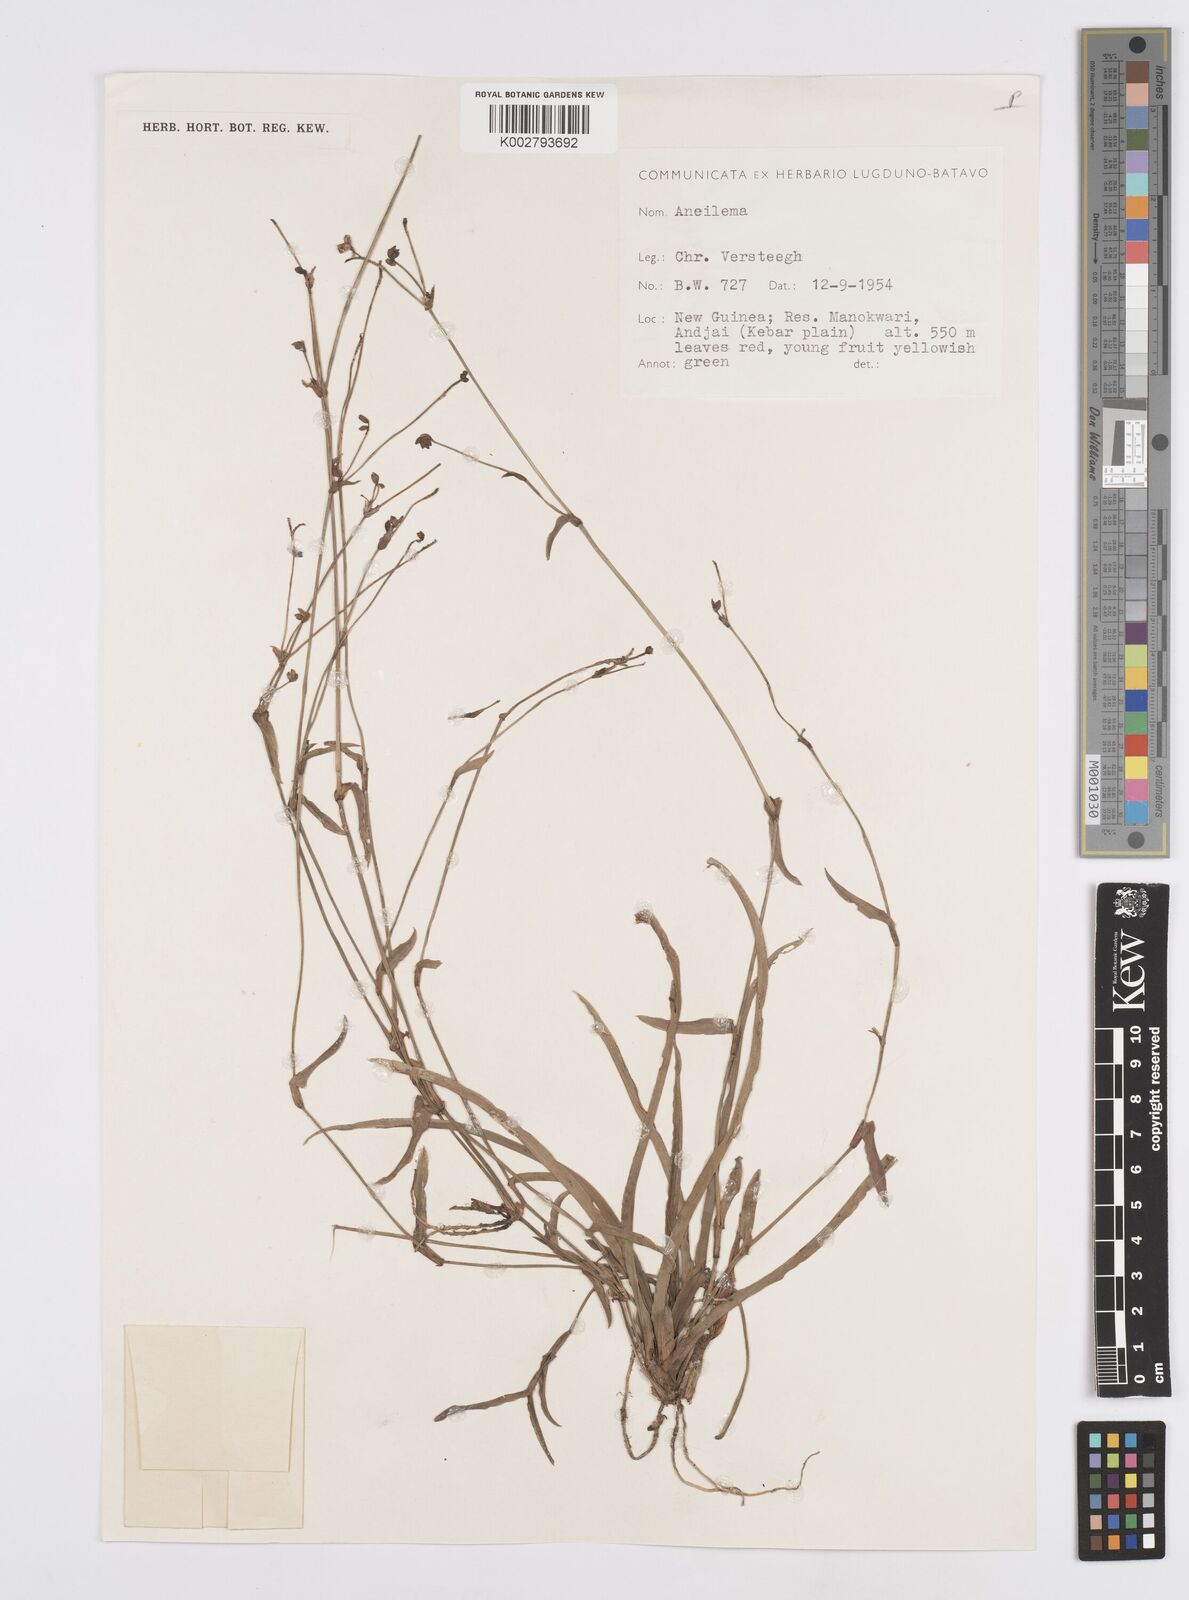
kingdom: Plantae
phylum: Tracheophyta
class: Liliopsida
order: Commelinales
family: Commelinaceae
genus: Murdannia
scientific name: Murdannia
